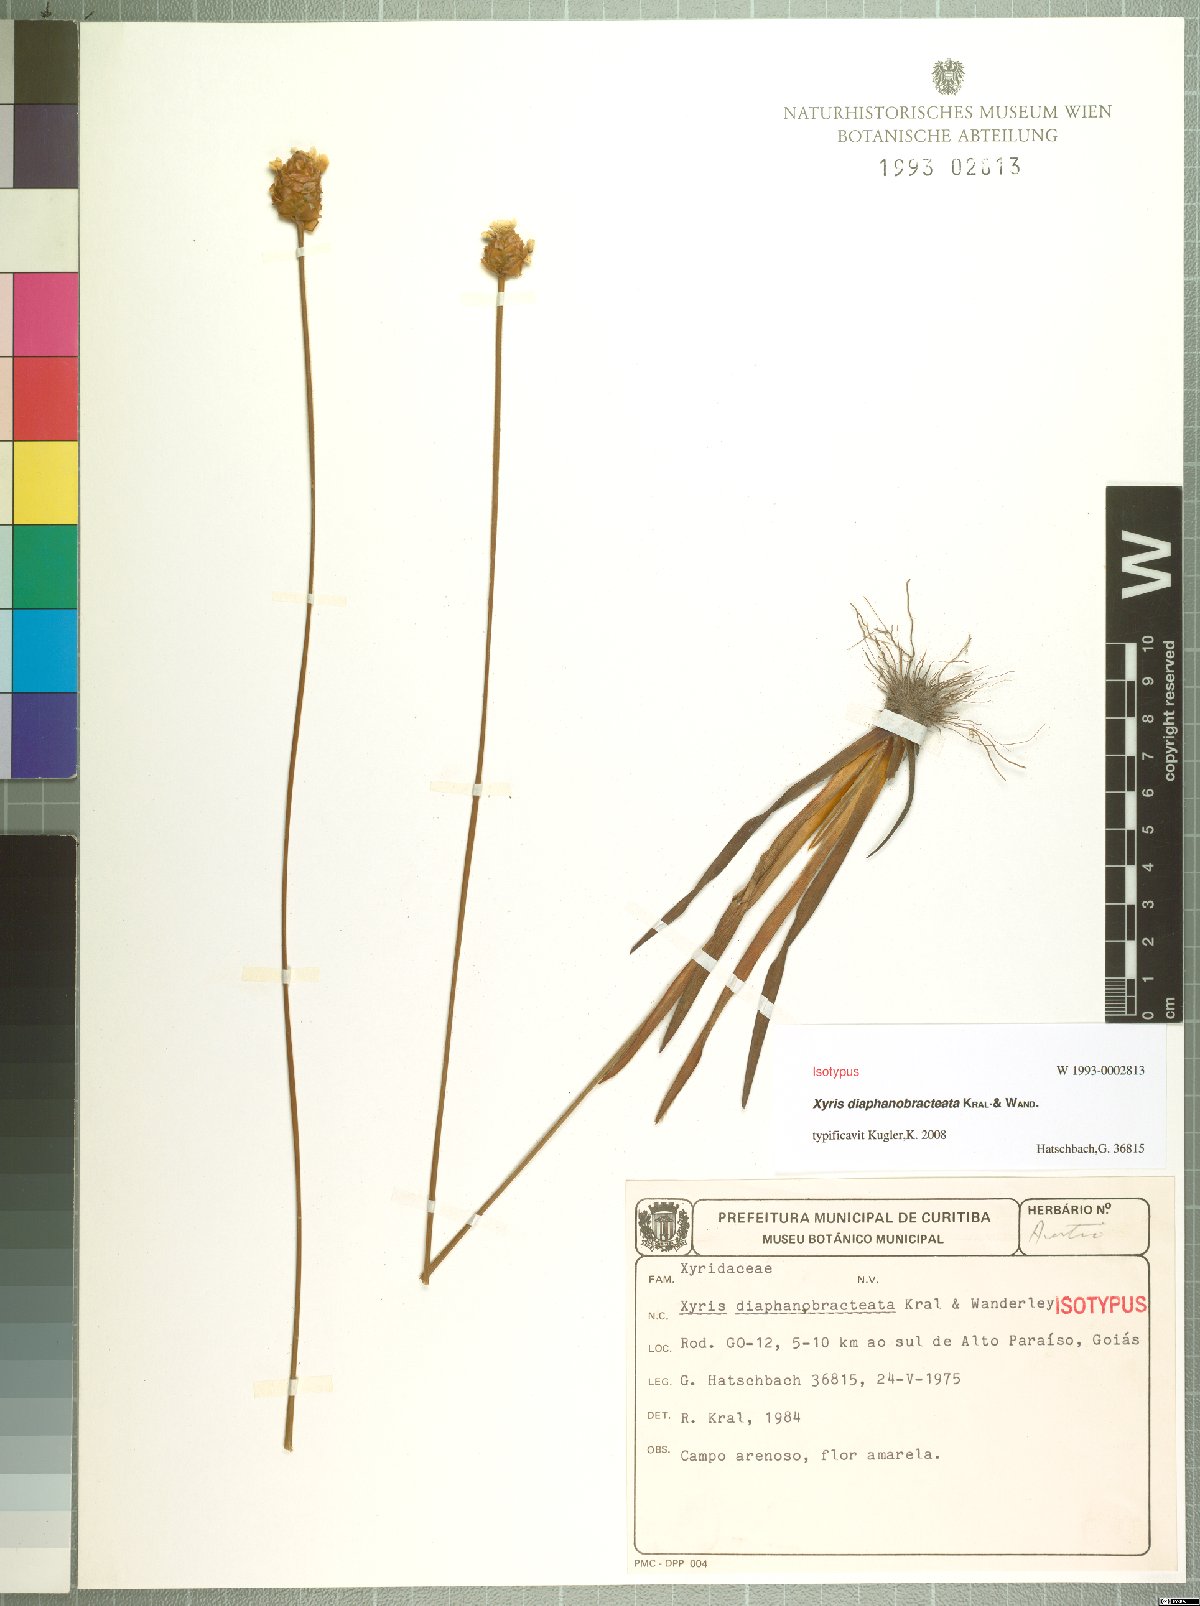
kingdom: Plantae
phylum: Tracheophyta
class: Liliopsida
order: Poales
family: Xyridaceae
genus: Xyris
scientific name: Xyris diaphanobracteata
